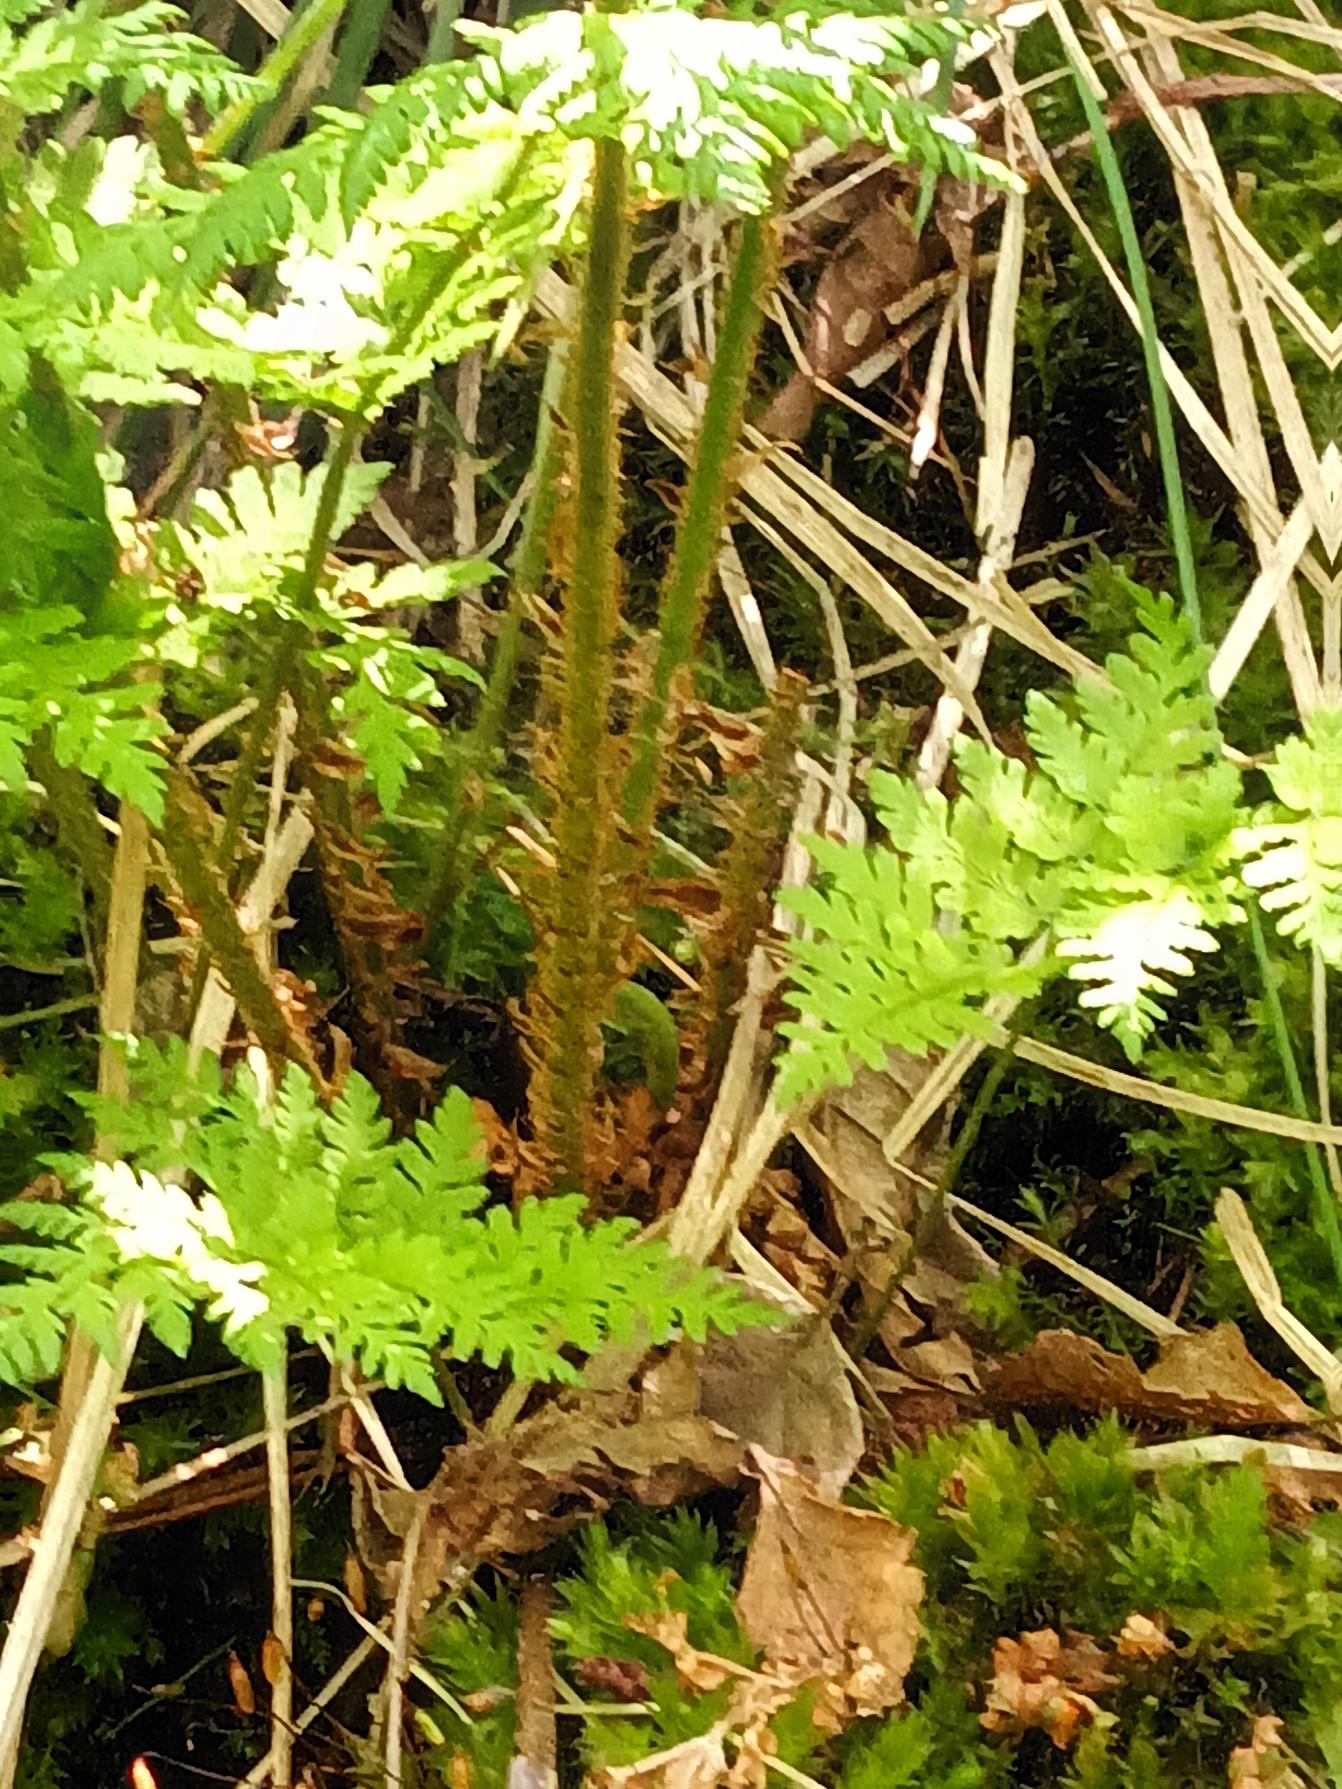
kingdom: Plantae
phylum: Tracheophyta
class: Polypodiopsida
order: Polypodiales
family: Dryopteridaceae
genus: Dryopteris
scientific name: Dryopteris expansa
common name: Finbladet mangeløv
